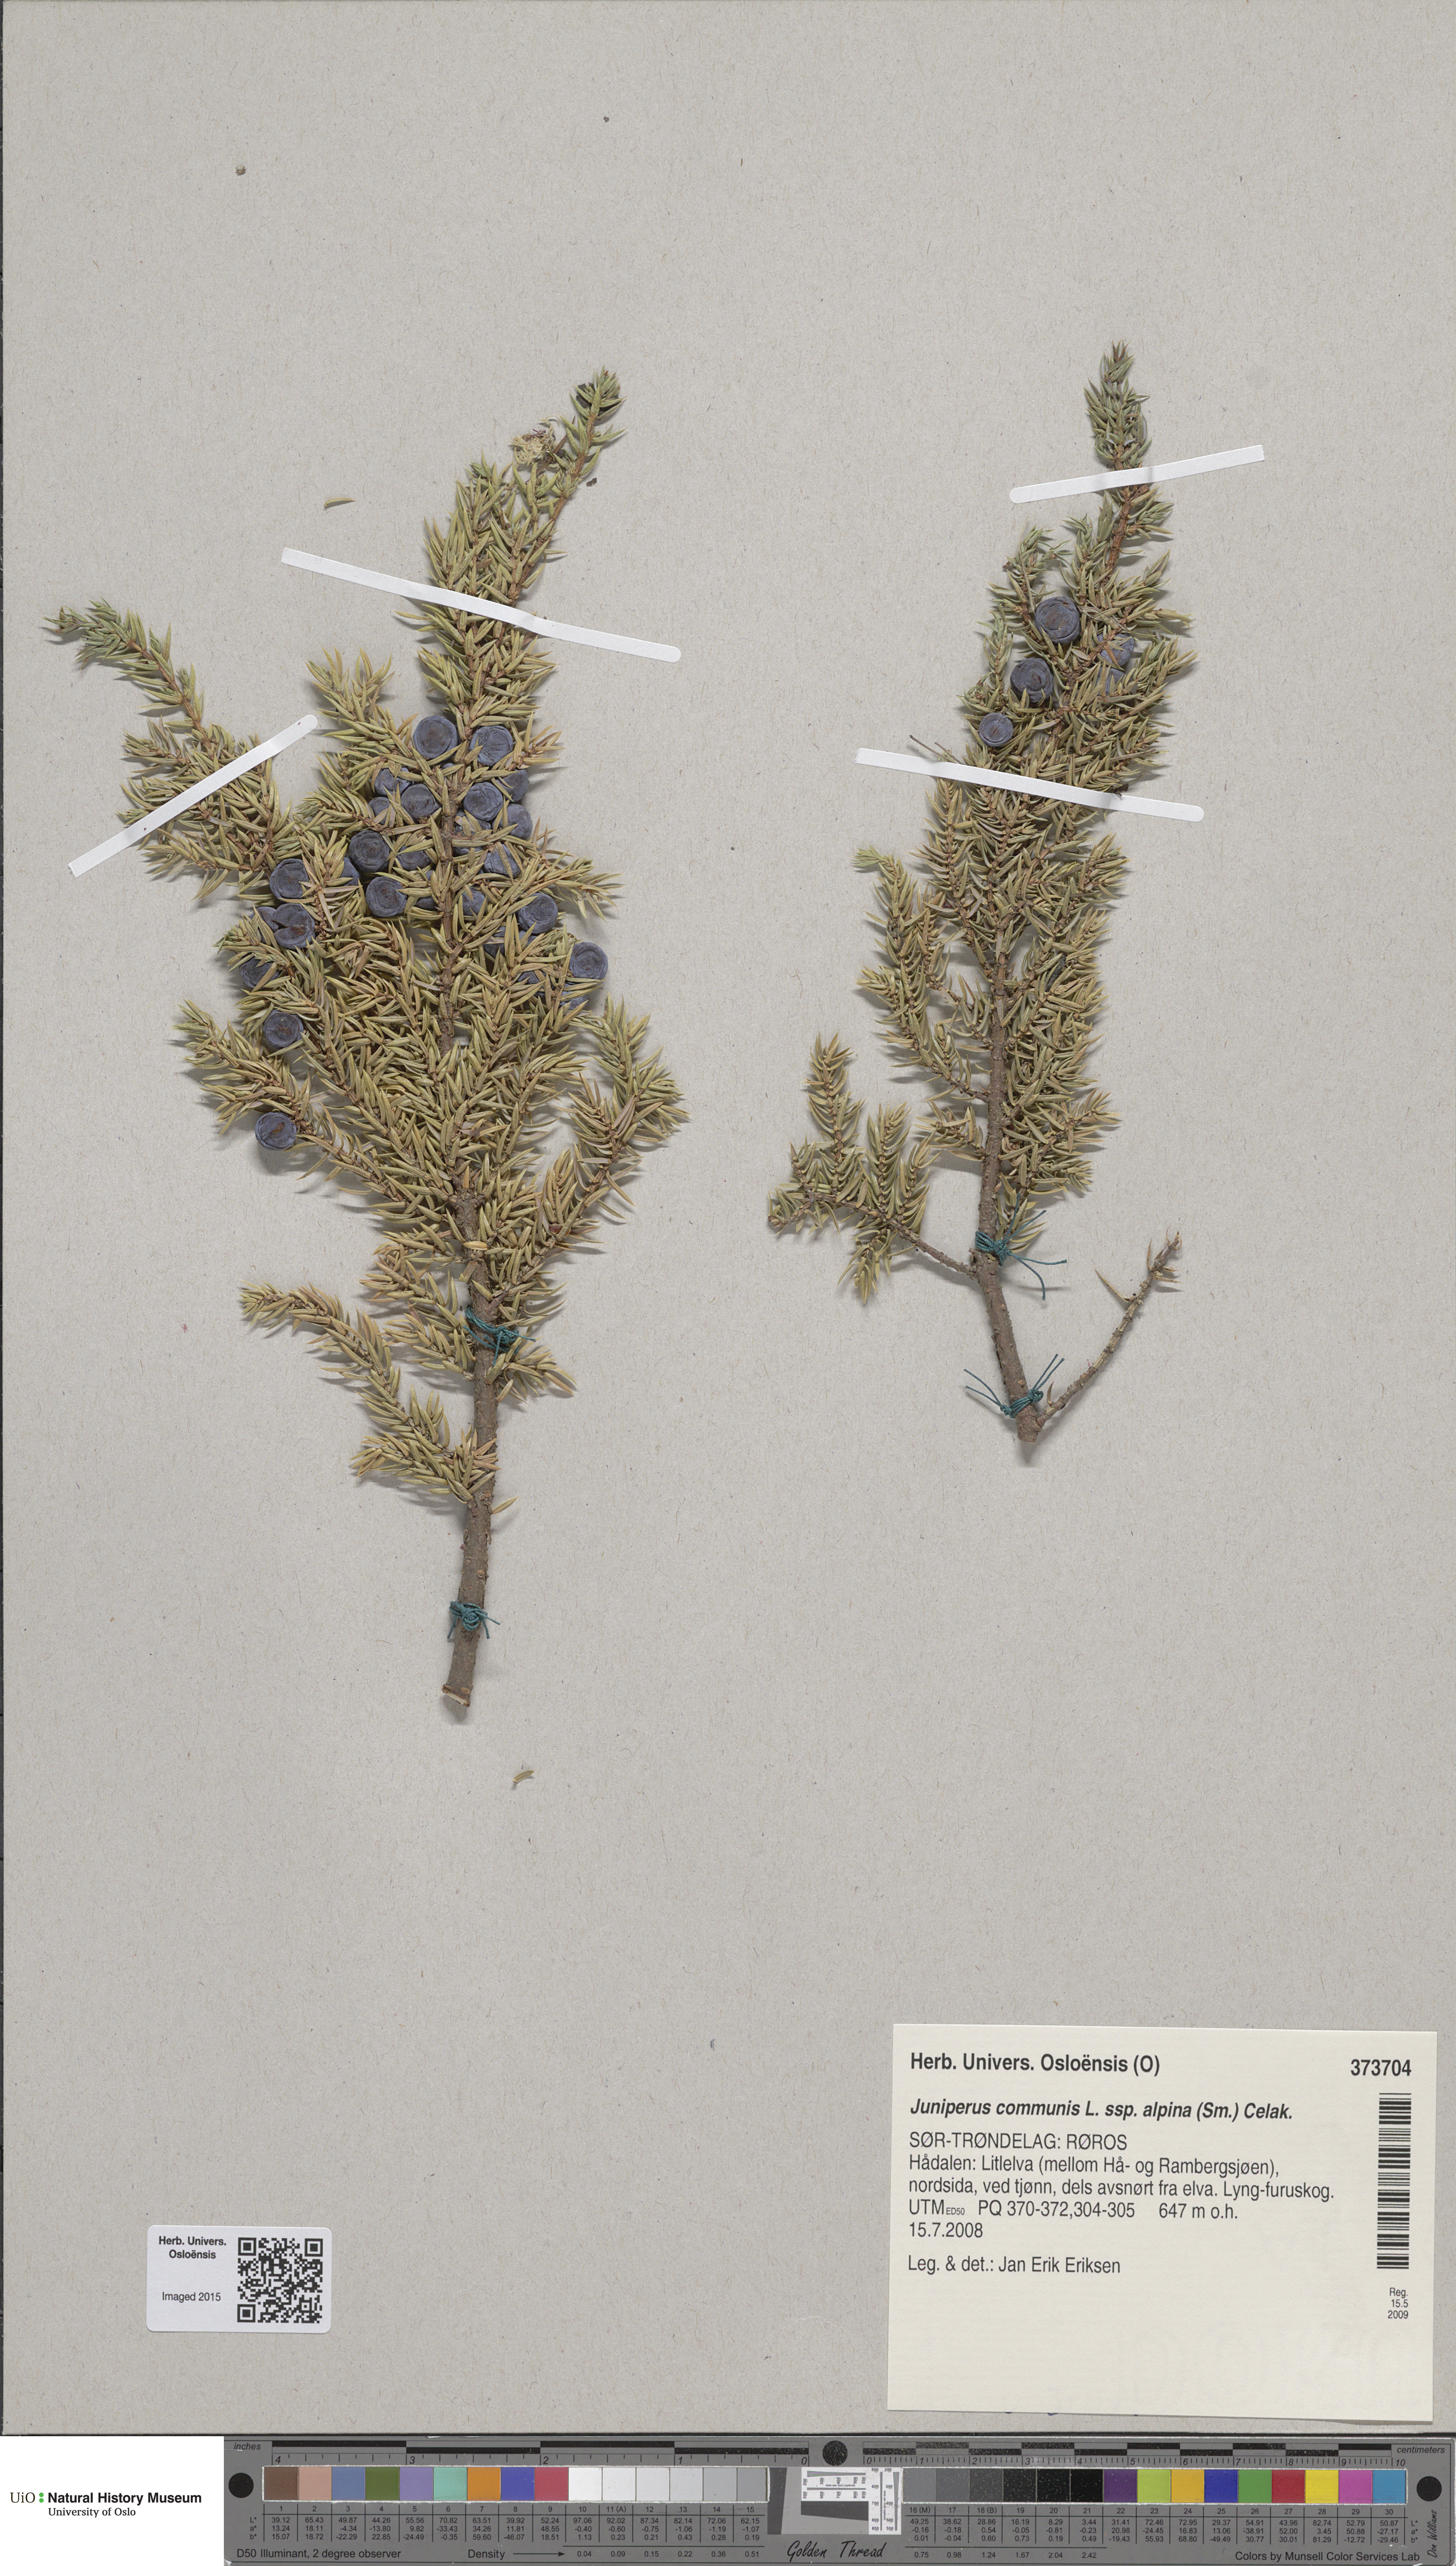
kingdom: Plantae
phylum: Tracheophyta
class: Pinopsida
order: Pinales
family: Cupressaceae
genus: Juniperus
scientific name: Juniperus communis
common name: Common juniper
